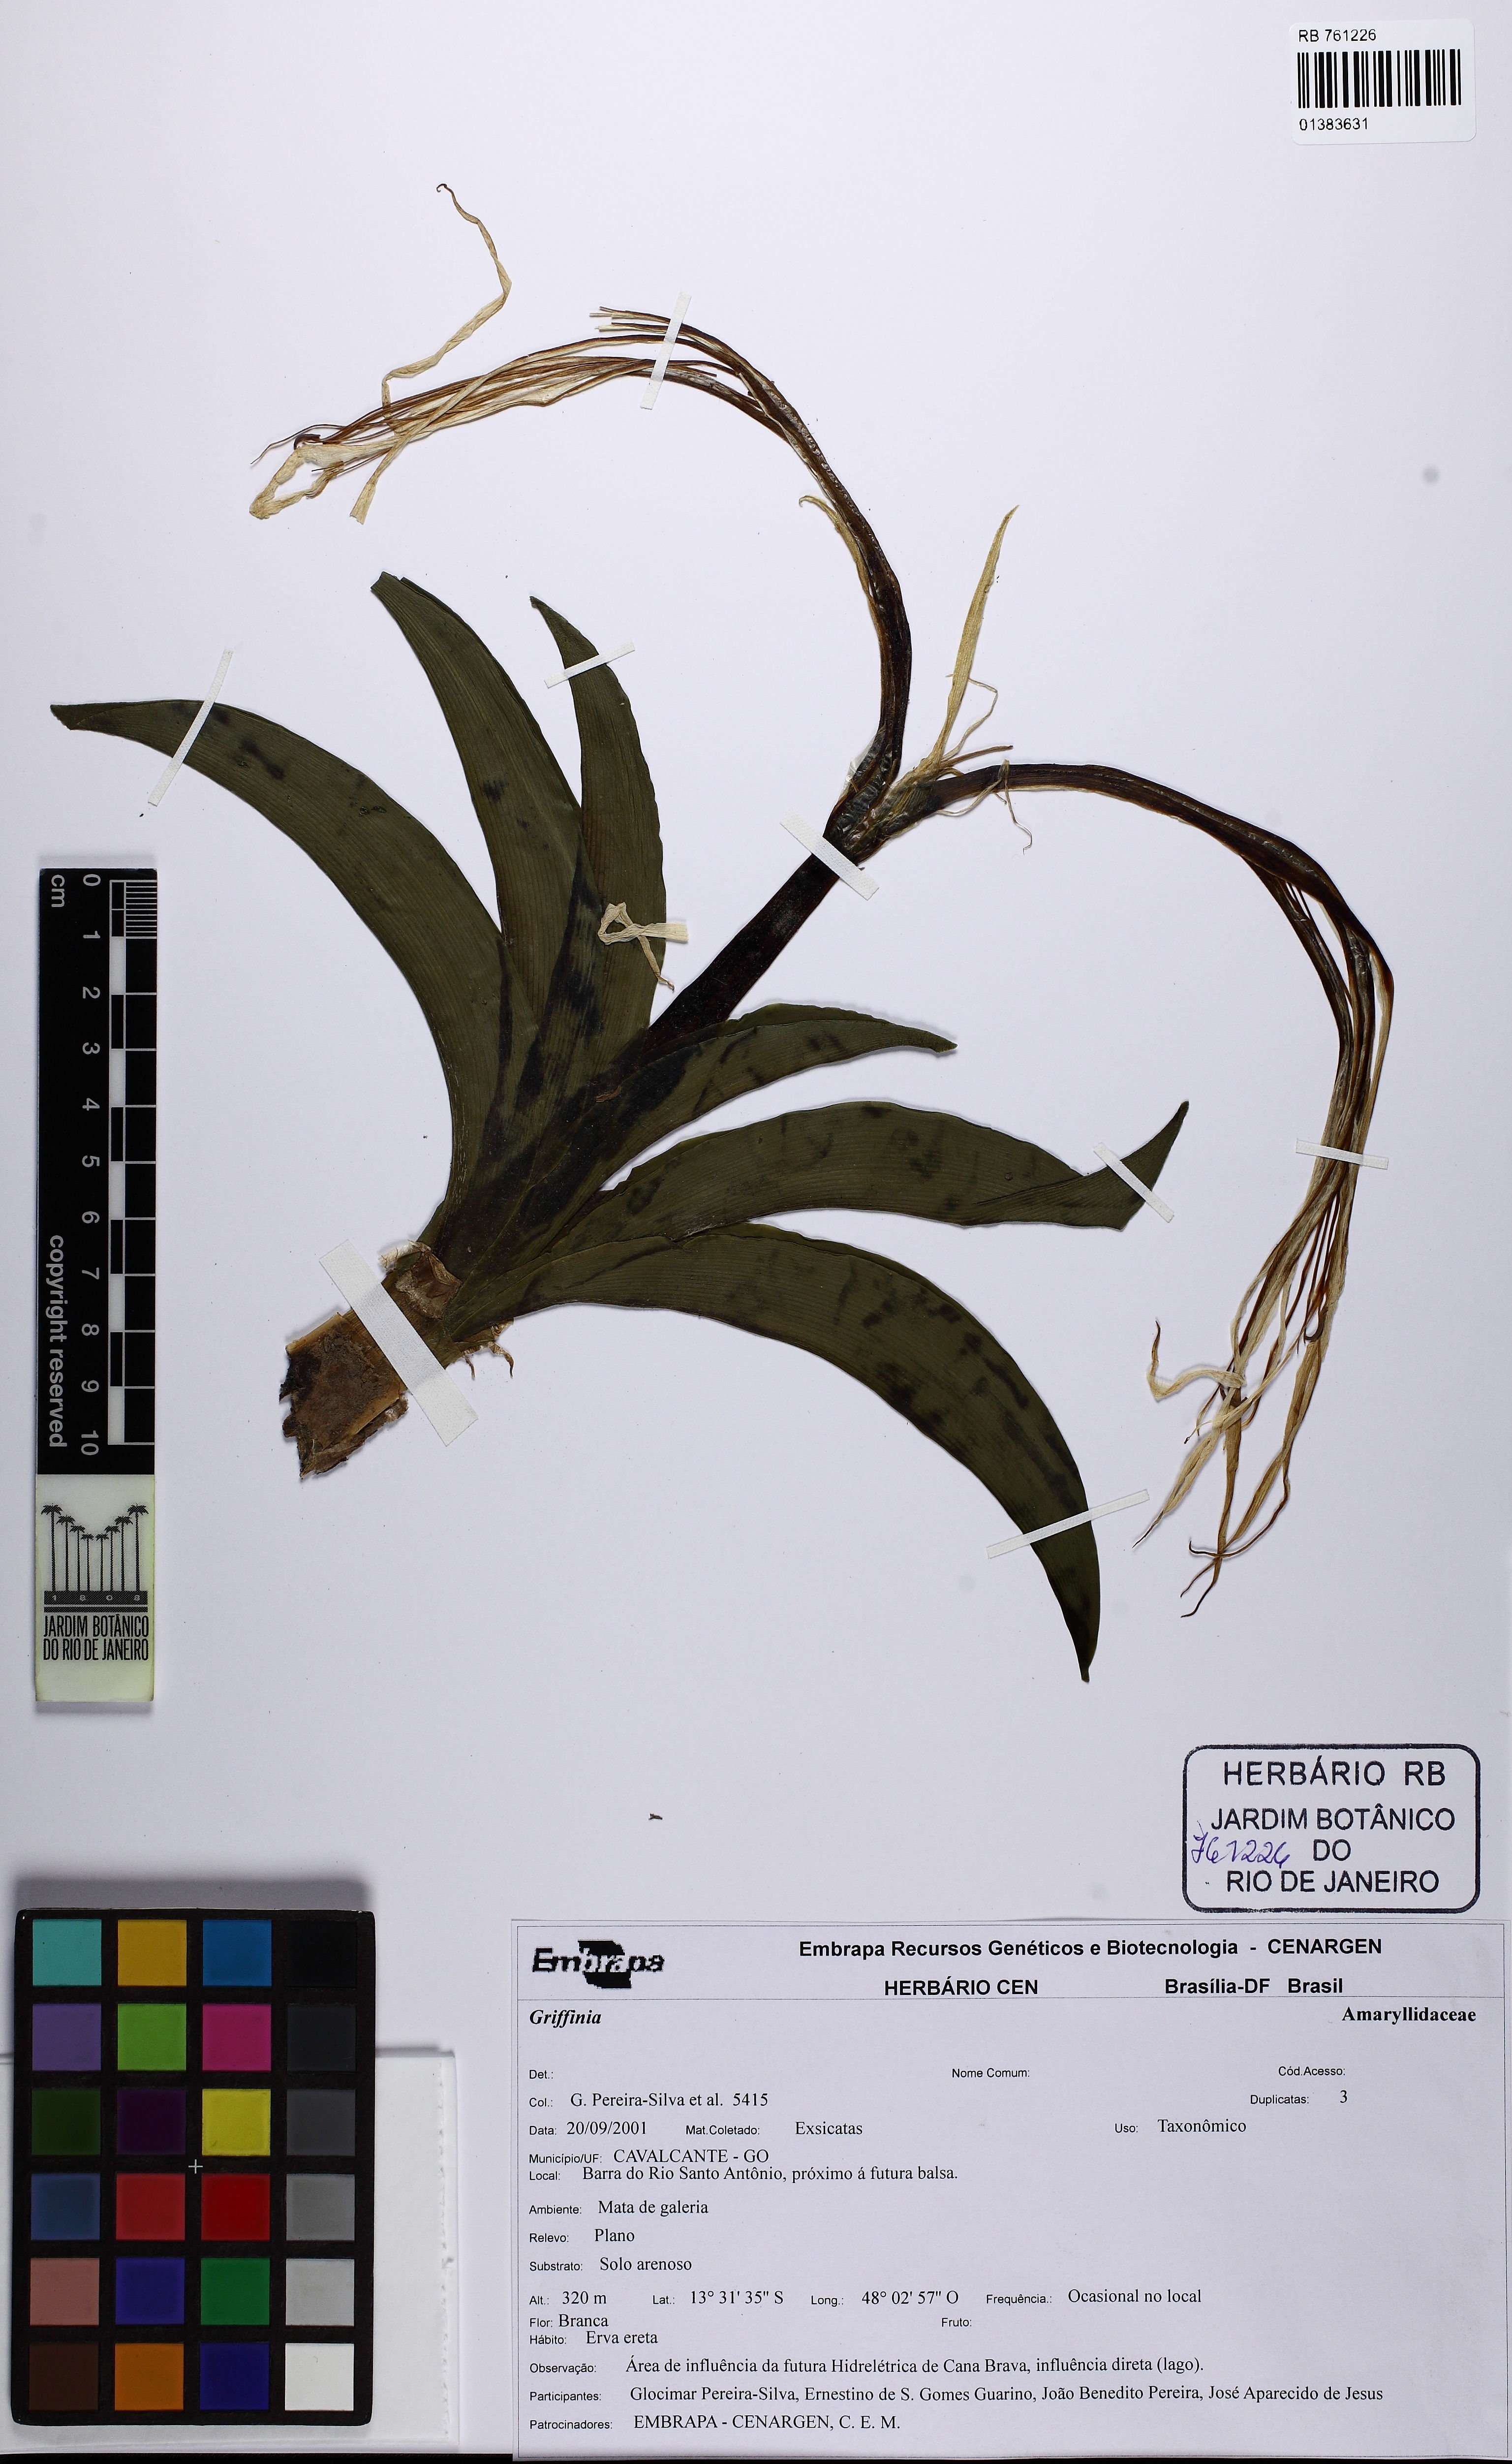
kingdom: Plantae
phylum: Tracheophyta
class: Liliopsida
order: Asparagales
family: Amaryllidaceae
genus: Griffinia
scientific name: Griffinia
